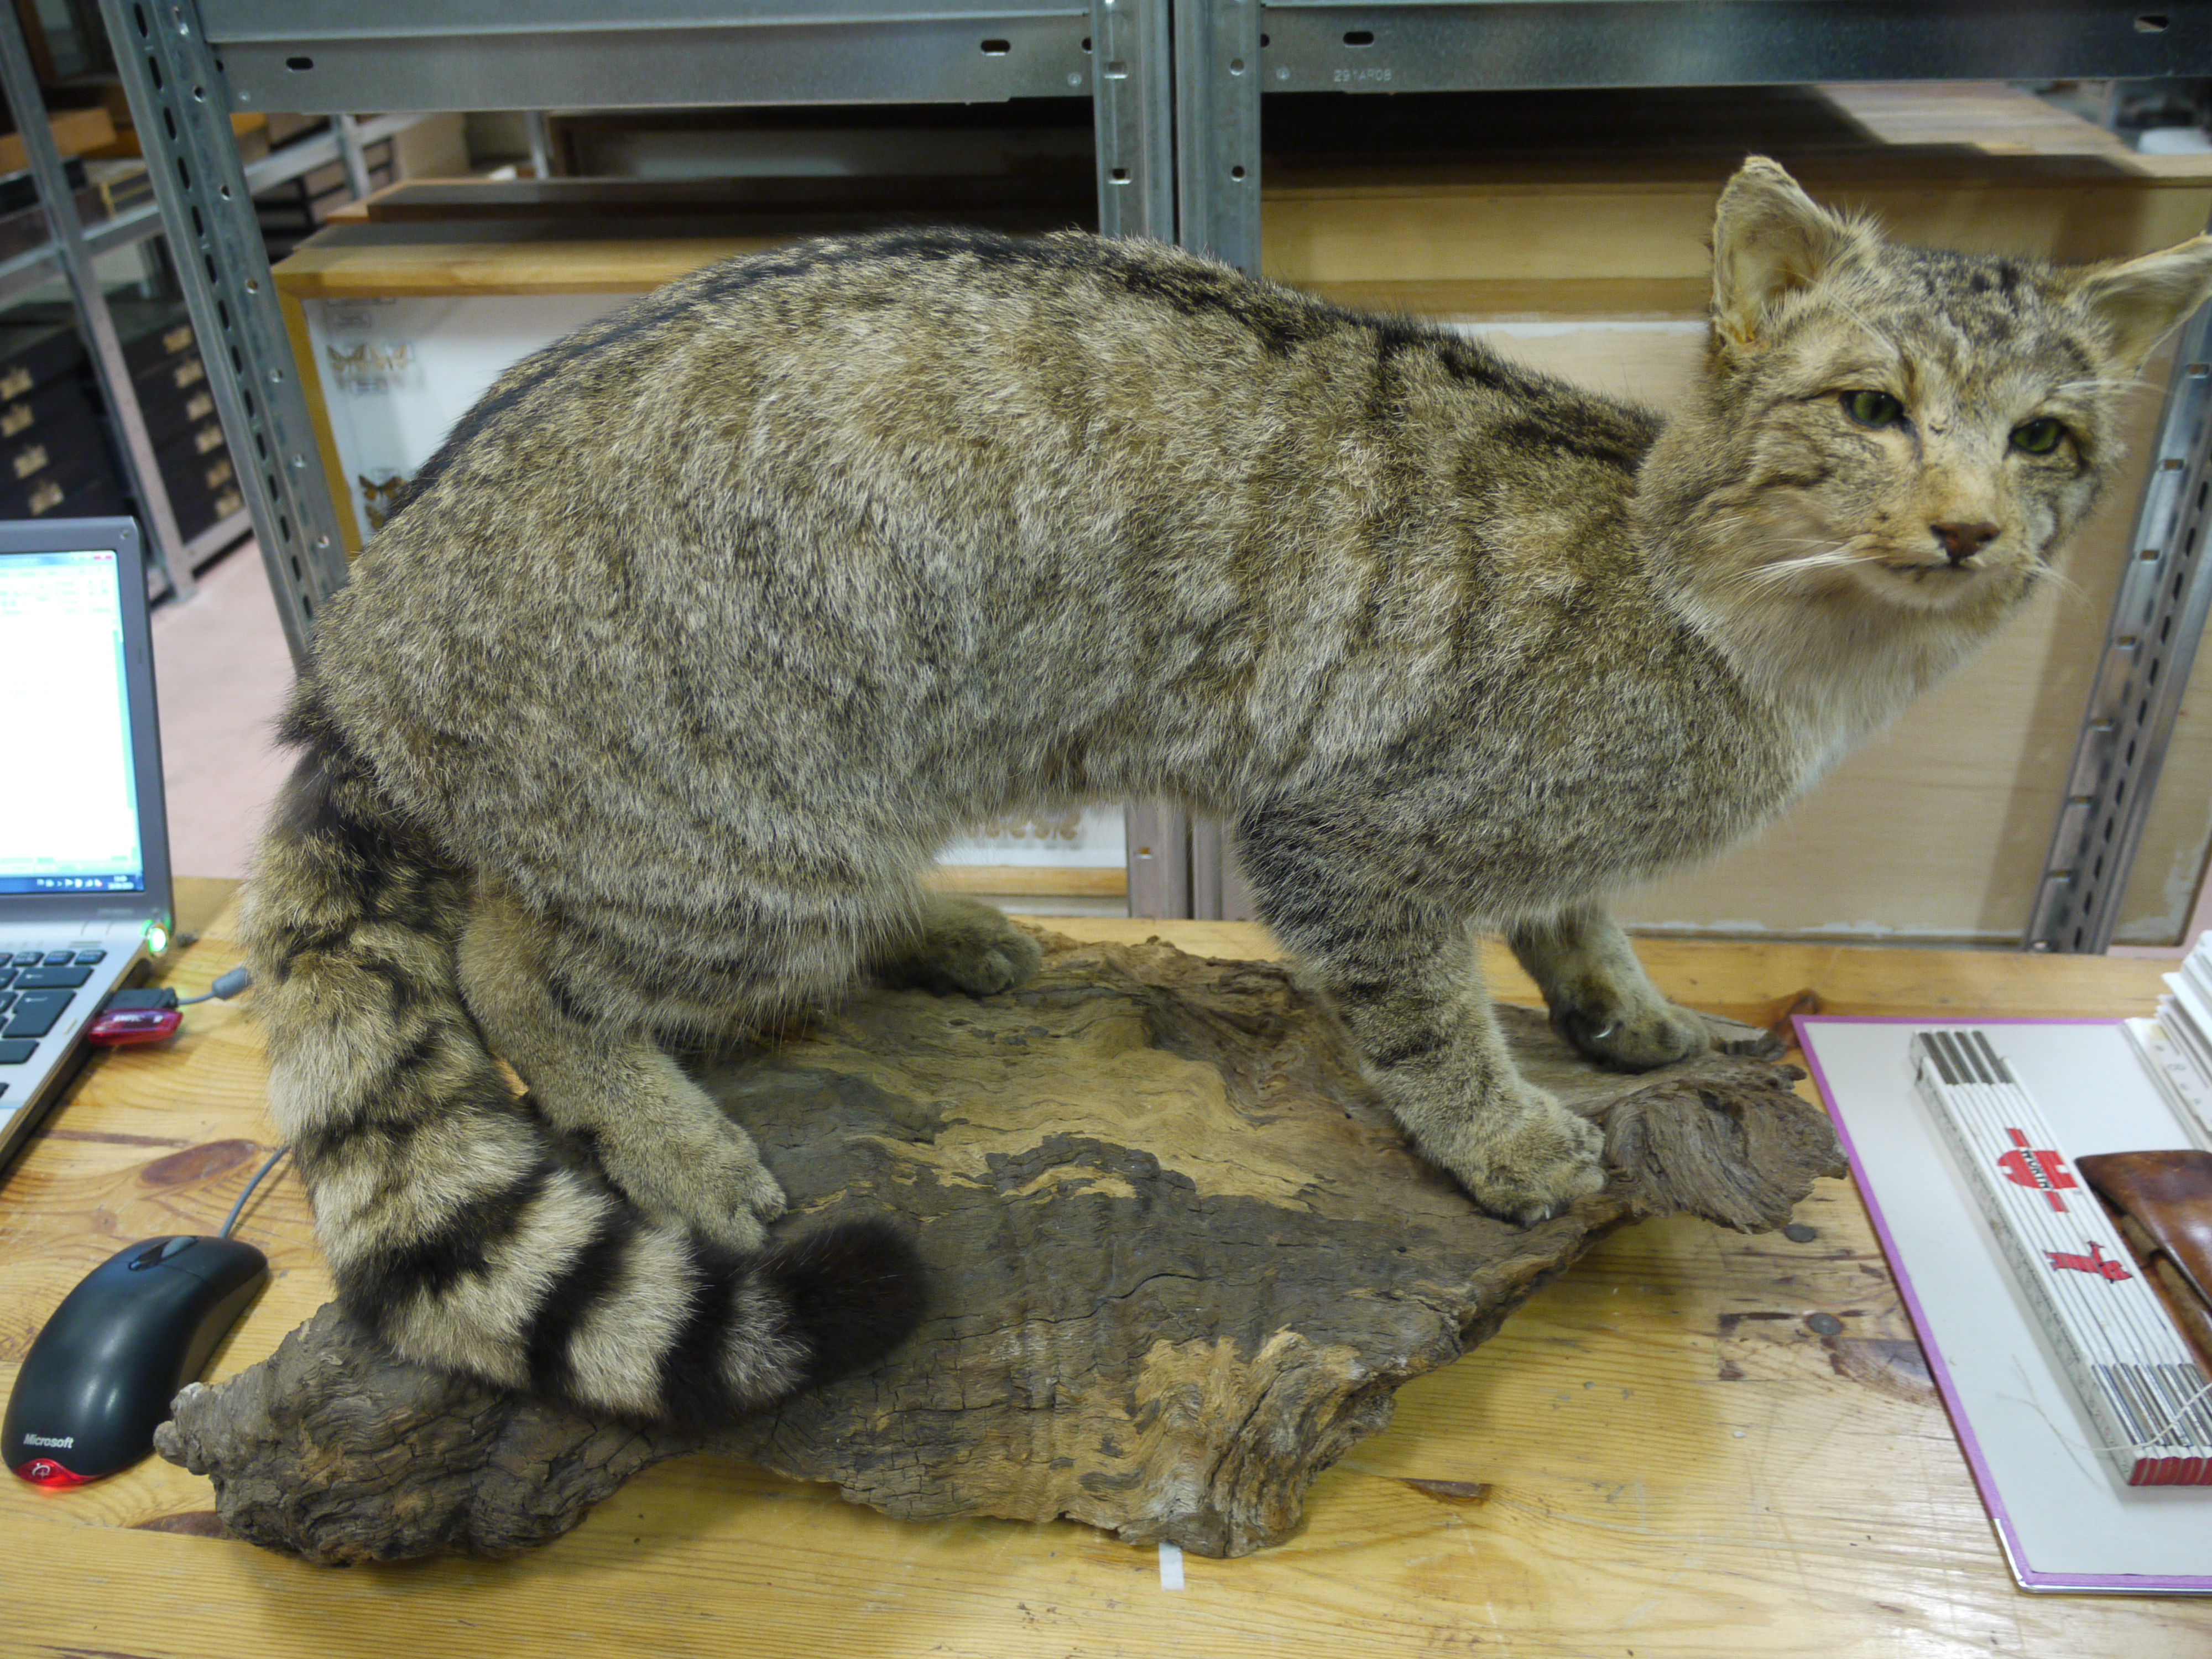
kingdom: Animalia
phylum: Chordata
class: Mammalia
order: Carnivora
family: Felidae
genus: Felis
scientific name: Felis silvestris
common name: Wildcat
